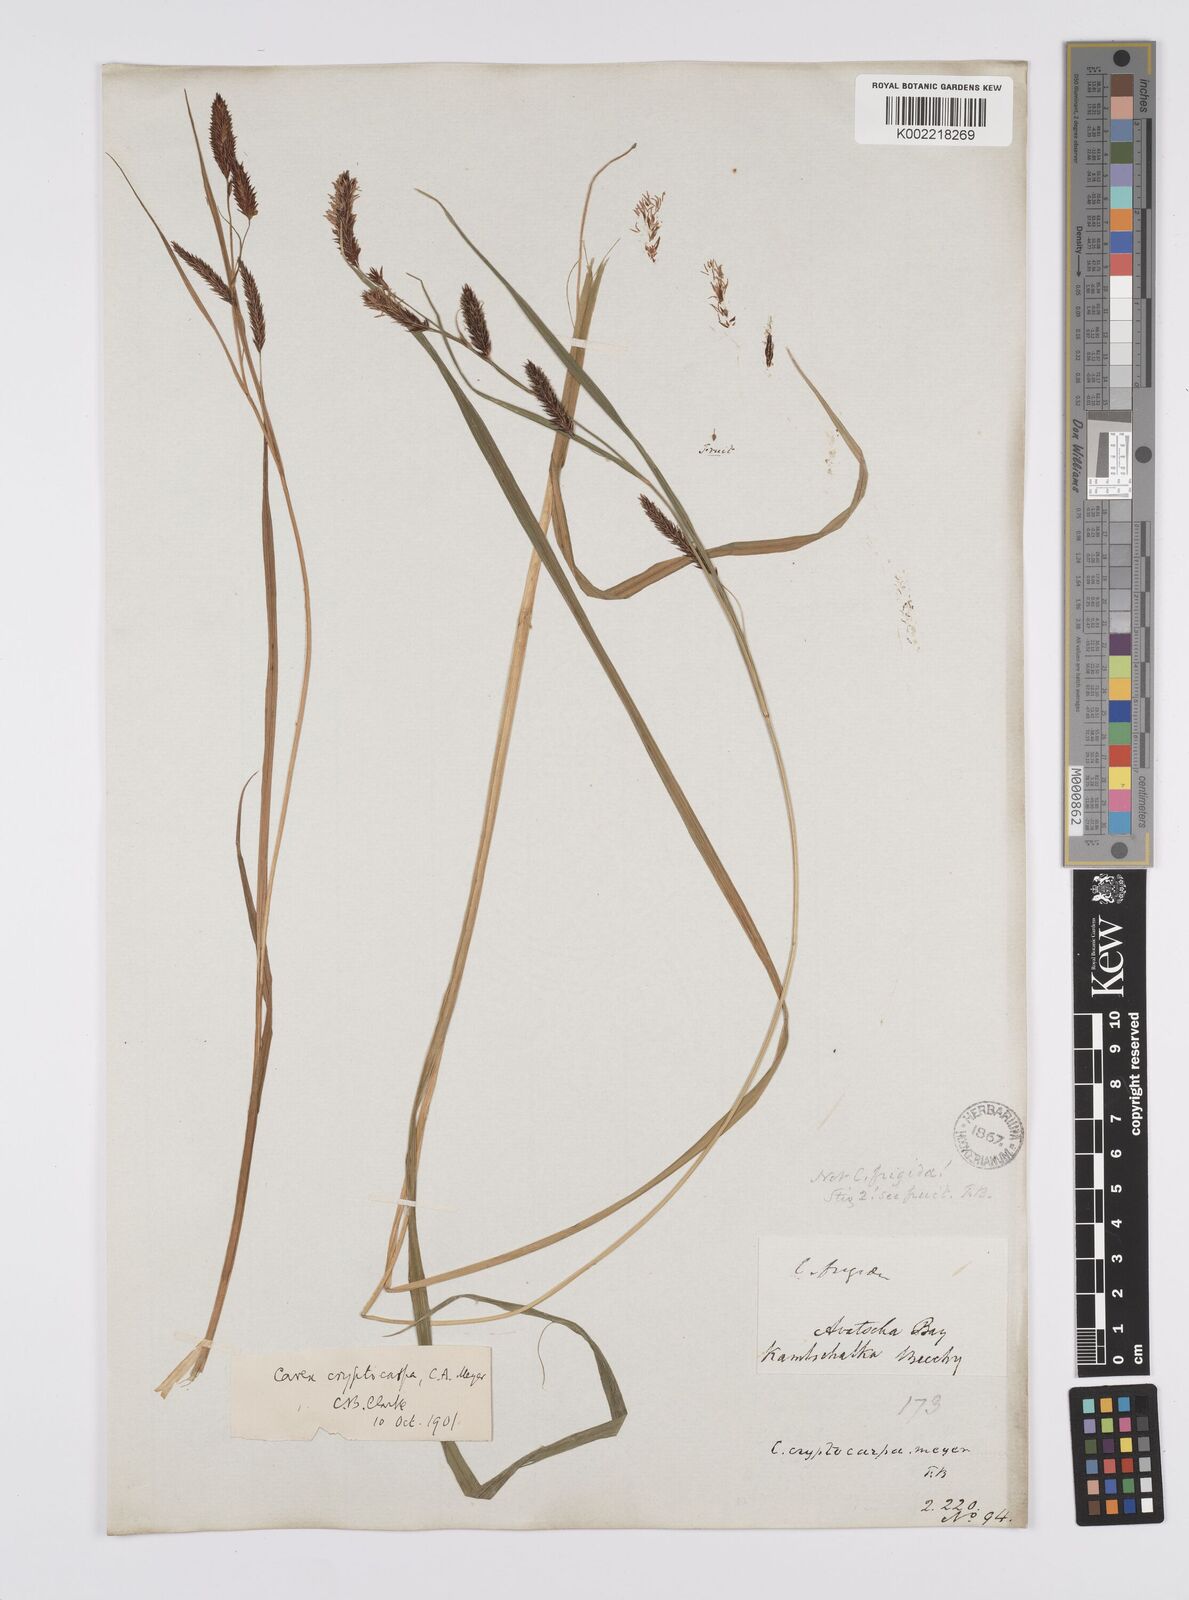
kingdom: Plantae
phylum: Tracheophyta
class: Liliopsida
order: Poales
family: Cyperaceae
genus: Carex
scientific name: Carex lyngbyei
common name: Lyngbye's sedge
